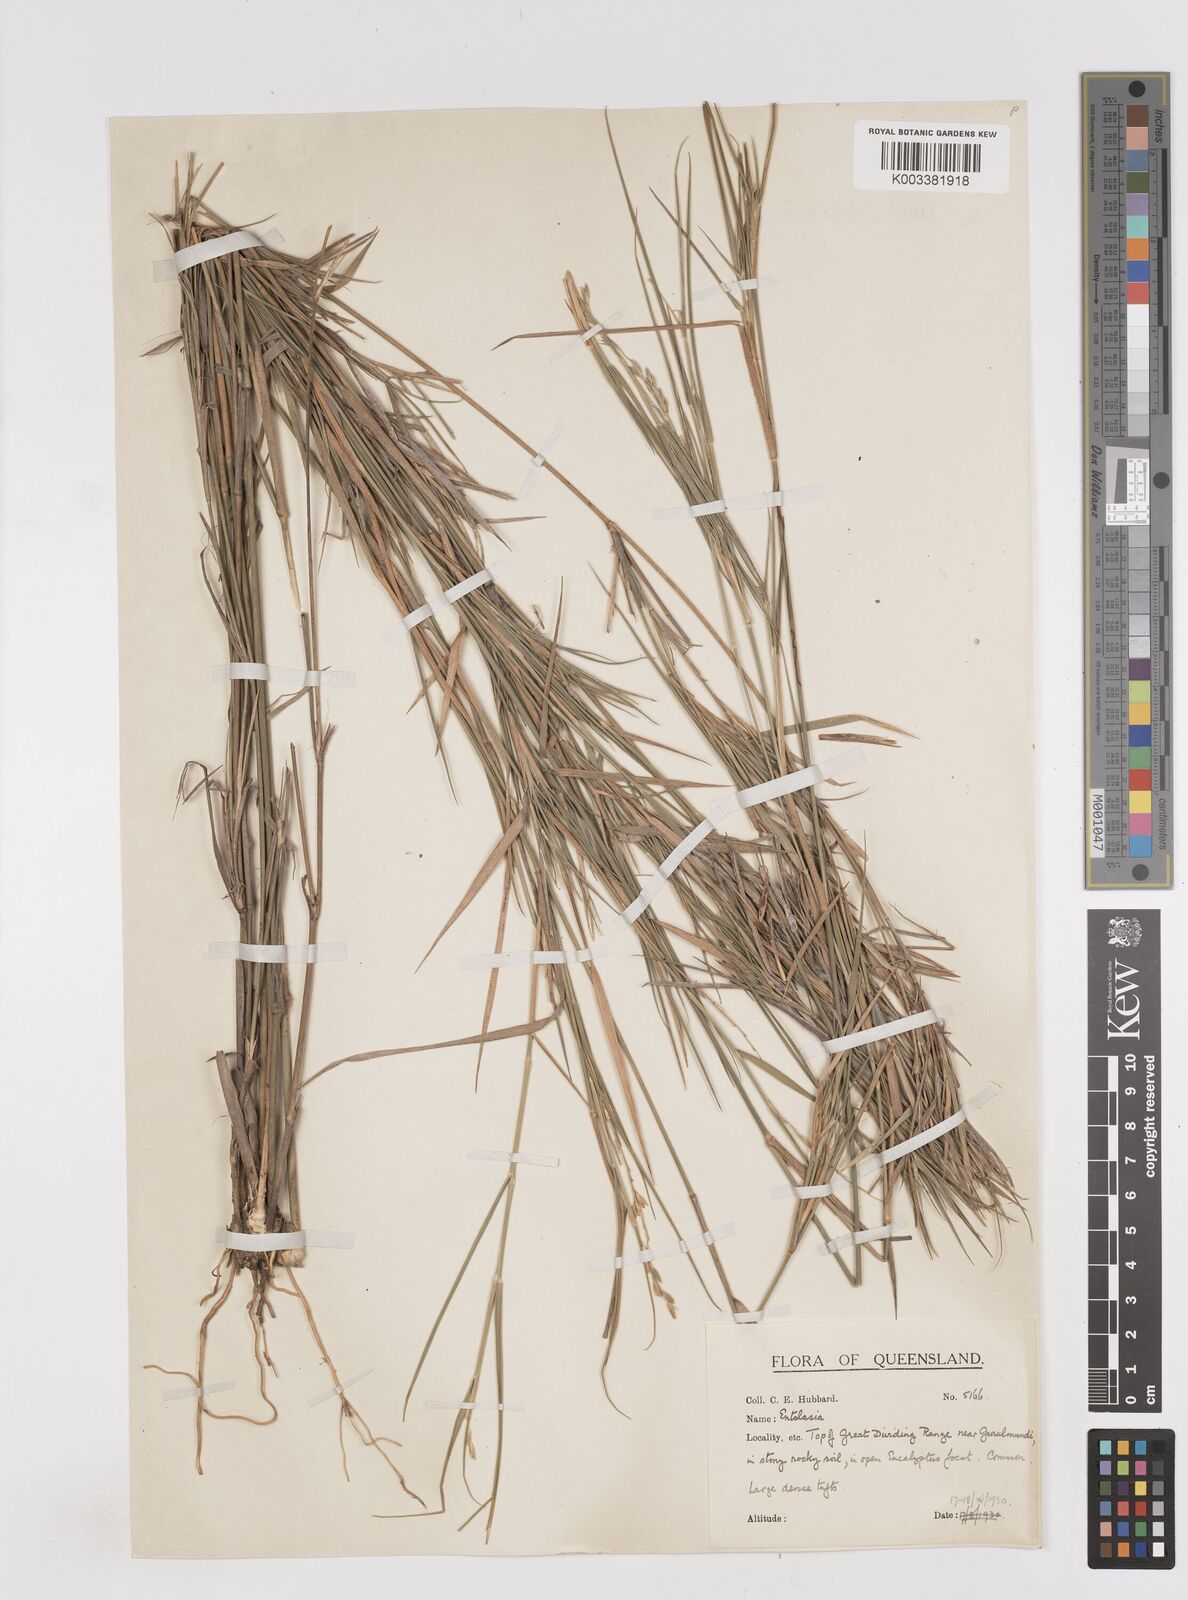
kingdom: Plantae
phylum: Tracheophyta
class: Liliopsida
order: Poales
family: Poaceae
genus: Dimorphochloa
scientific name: Dimorphochloa rigida
